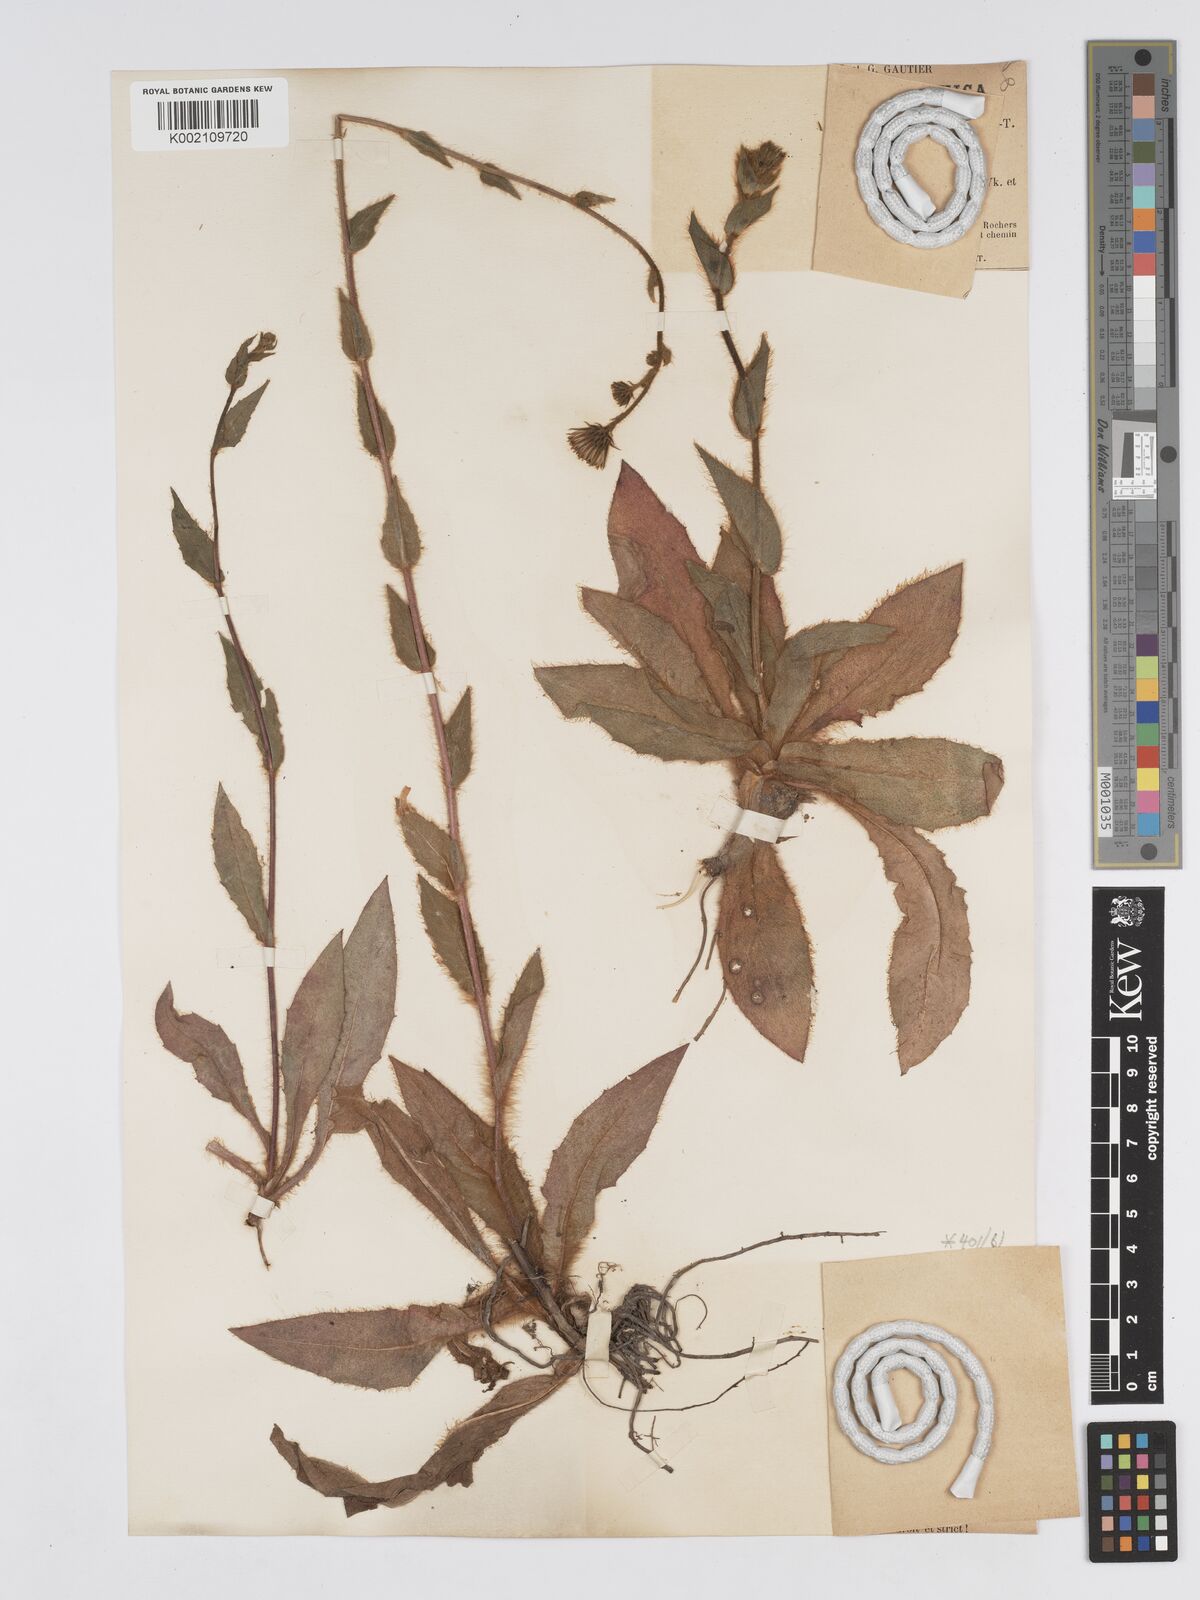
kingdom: Plantae
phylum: Tracheophyta
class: Magnoliopsida
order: Asterales
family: Asteraceae
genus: Hieracium
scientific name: Hieracium
